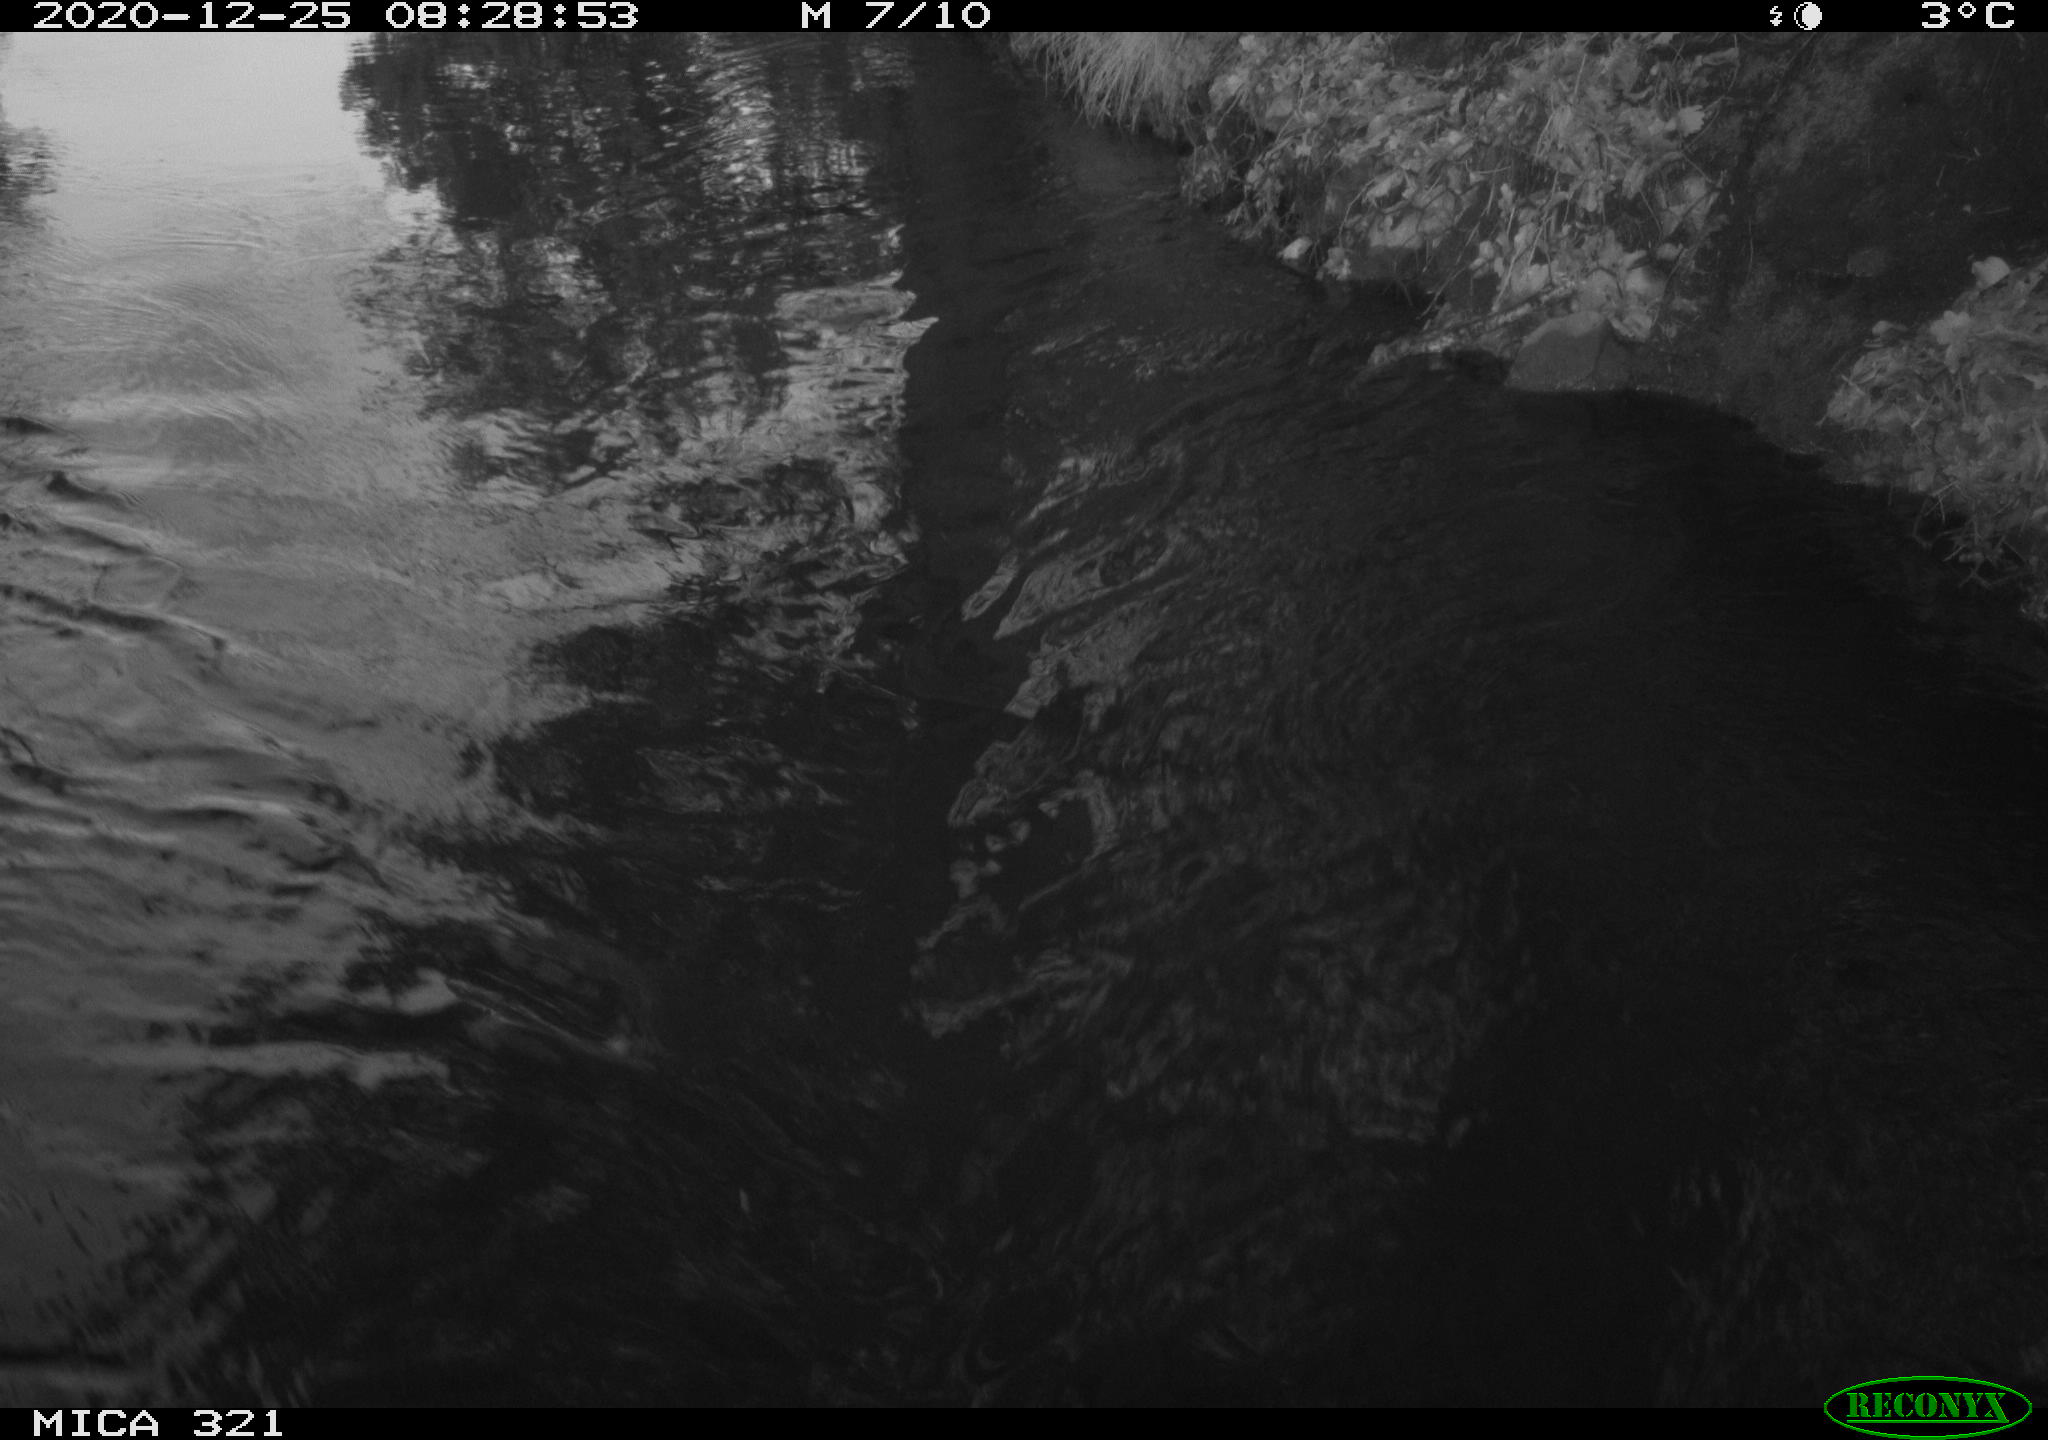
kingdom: Animalia
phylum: Chordata
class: Aves
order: Anseriformes
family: Anatidae
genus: Anas
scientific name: Anas platyrhynchos
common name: Mallard
